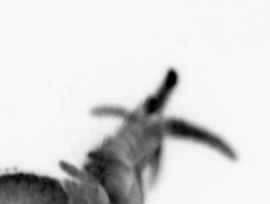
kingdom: Animalia
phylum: Annelida
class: Polychaeta
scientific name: Polychaeta
